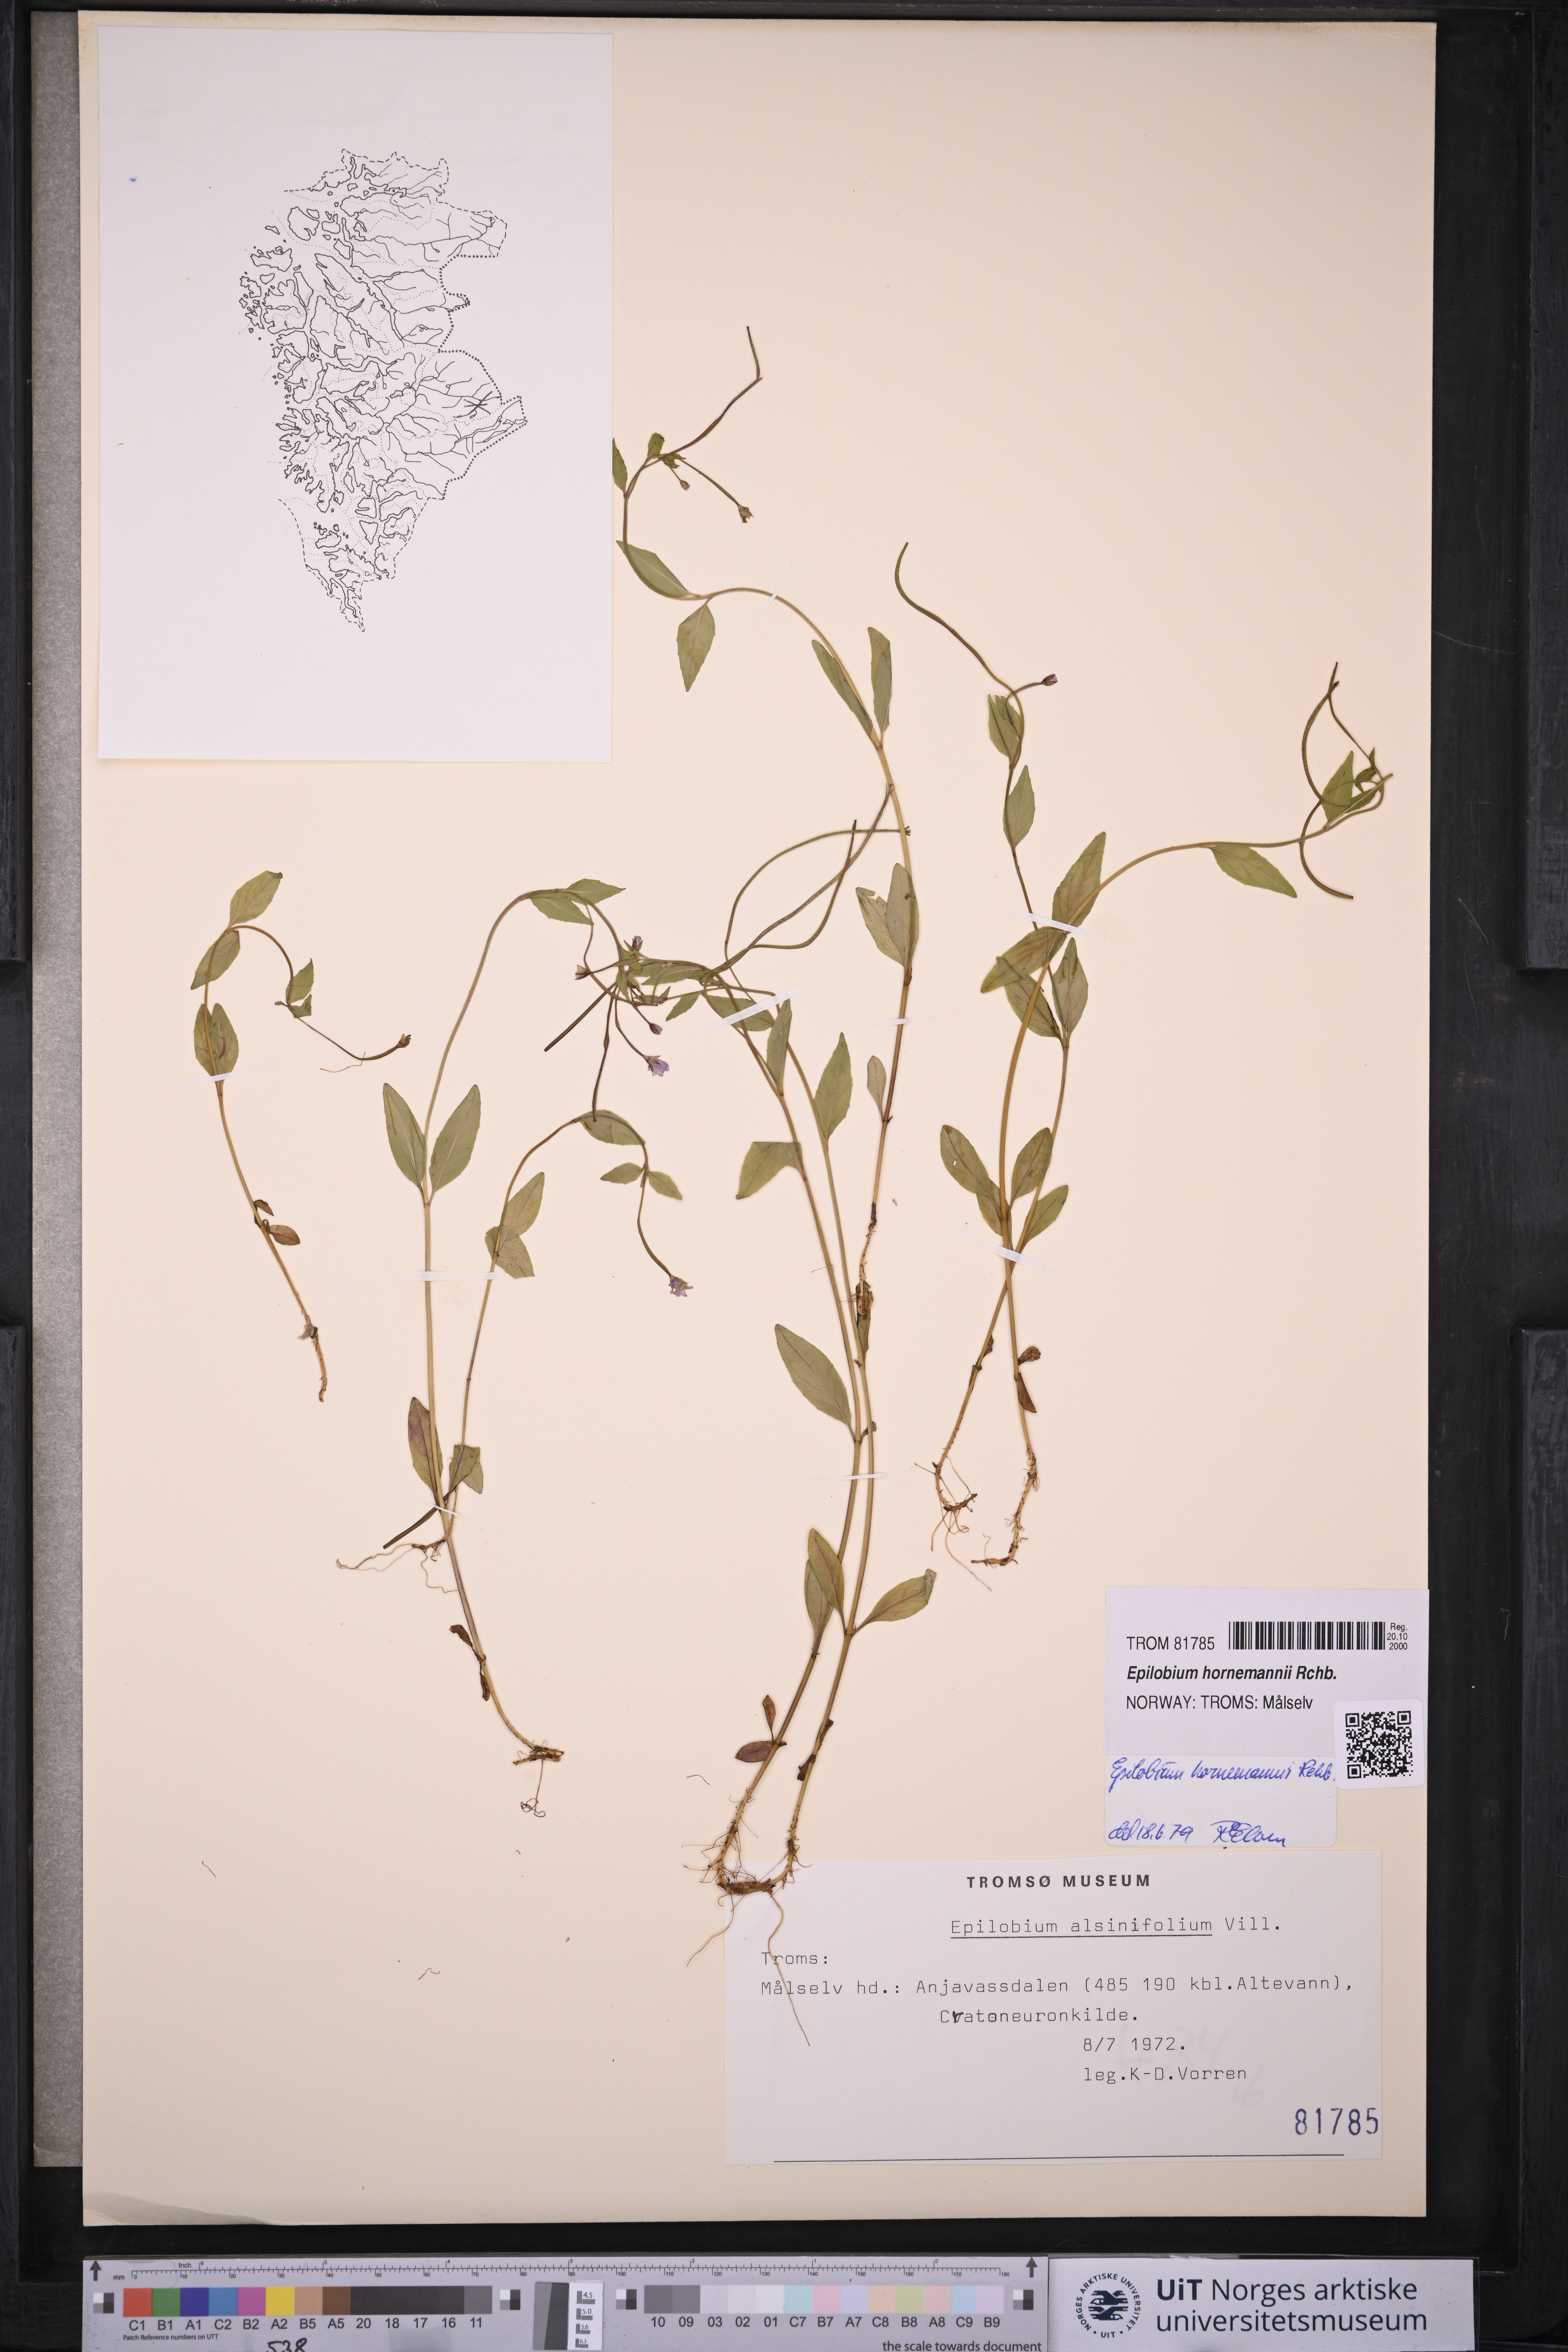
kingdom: Plantae
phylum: Tracheophyta
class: Magnoliopsida
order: Myrtales
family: Onagraceae
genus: Epilobium
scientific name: Epilobium hornemannii
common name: Hornemann's willowherb
